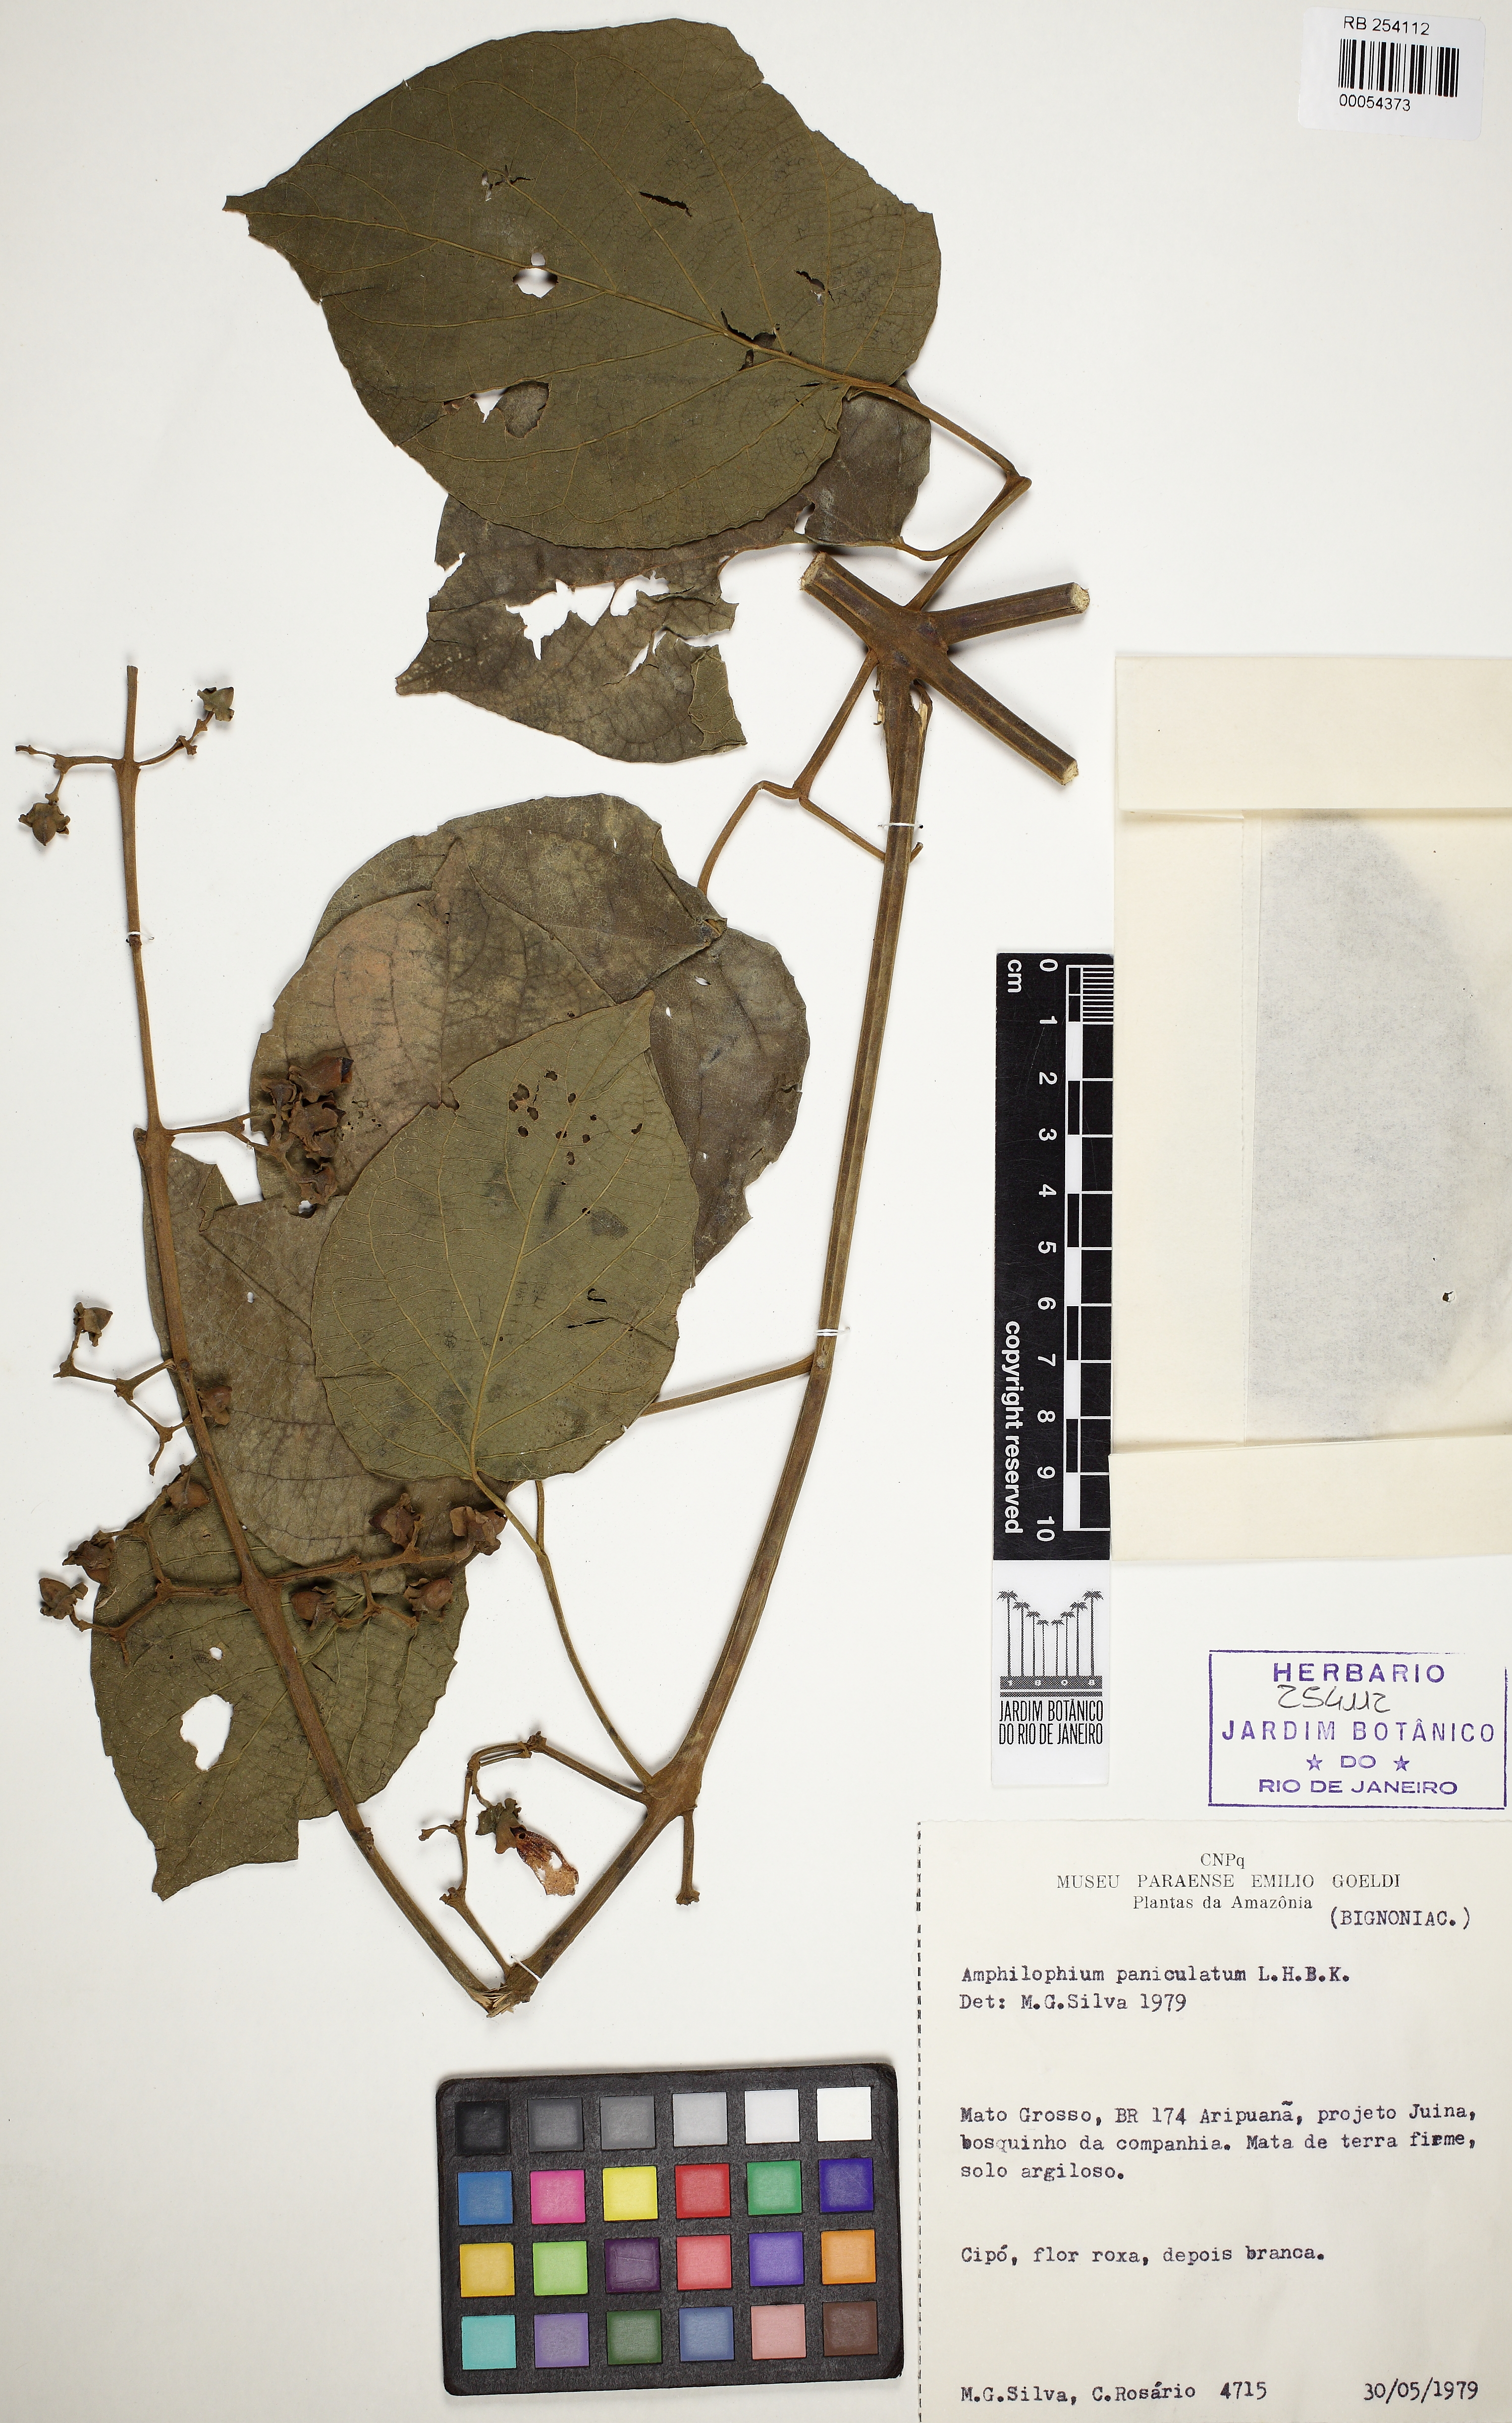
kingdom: Plantae
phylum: Tracheophyta
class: Magnoliopsida
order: Lamiales
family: Bignoniaceae
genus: Amphilophium
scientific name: Amphilophium paniculatum
